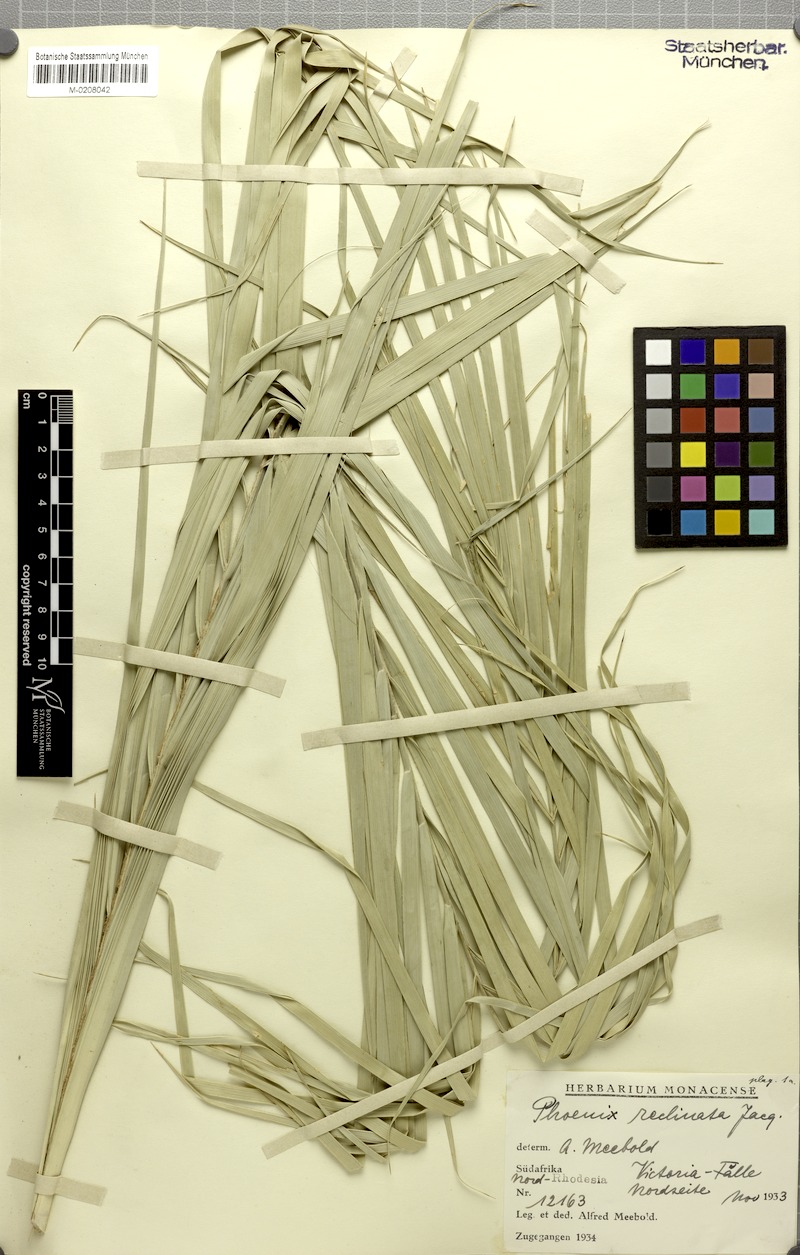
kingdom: Plantae
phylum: Tracheophyta
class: Liliopsida
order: Arecales
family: Arecaceae
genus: Phoenix
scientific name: Phoenix reclinata
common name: Senegal date palm
